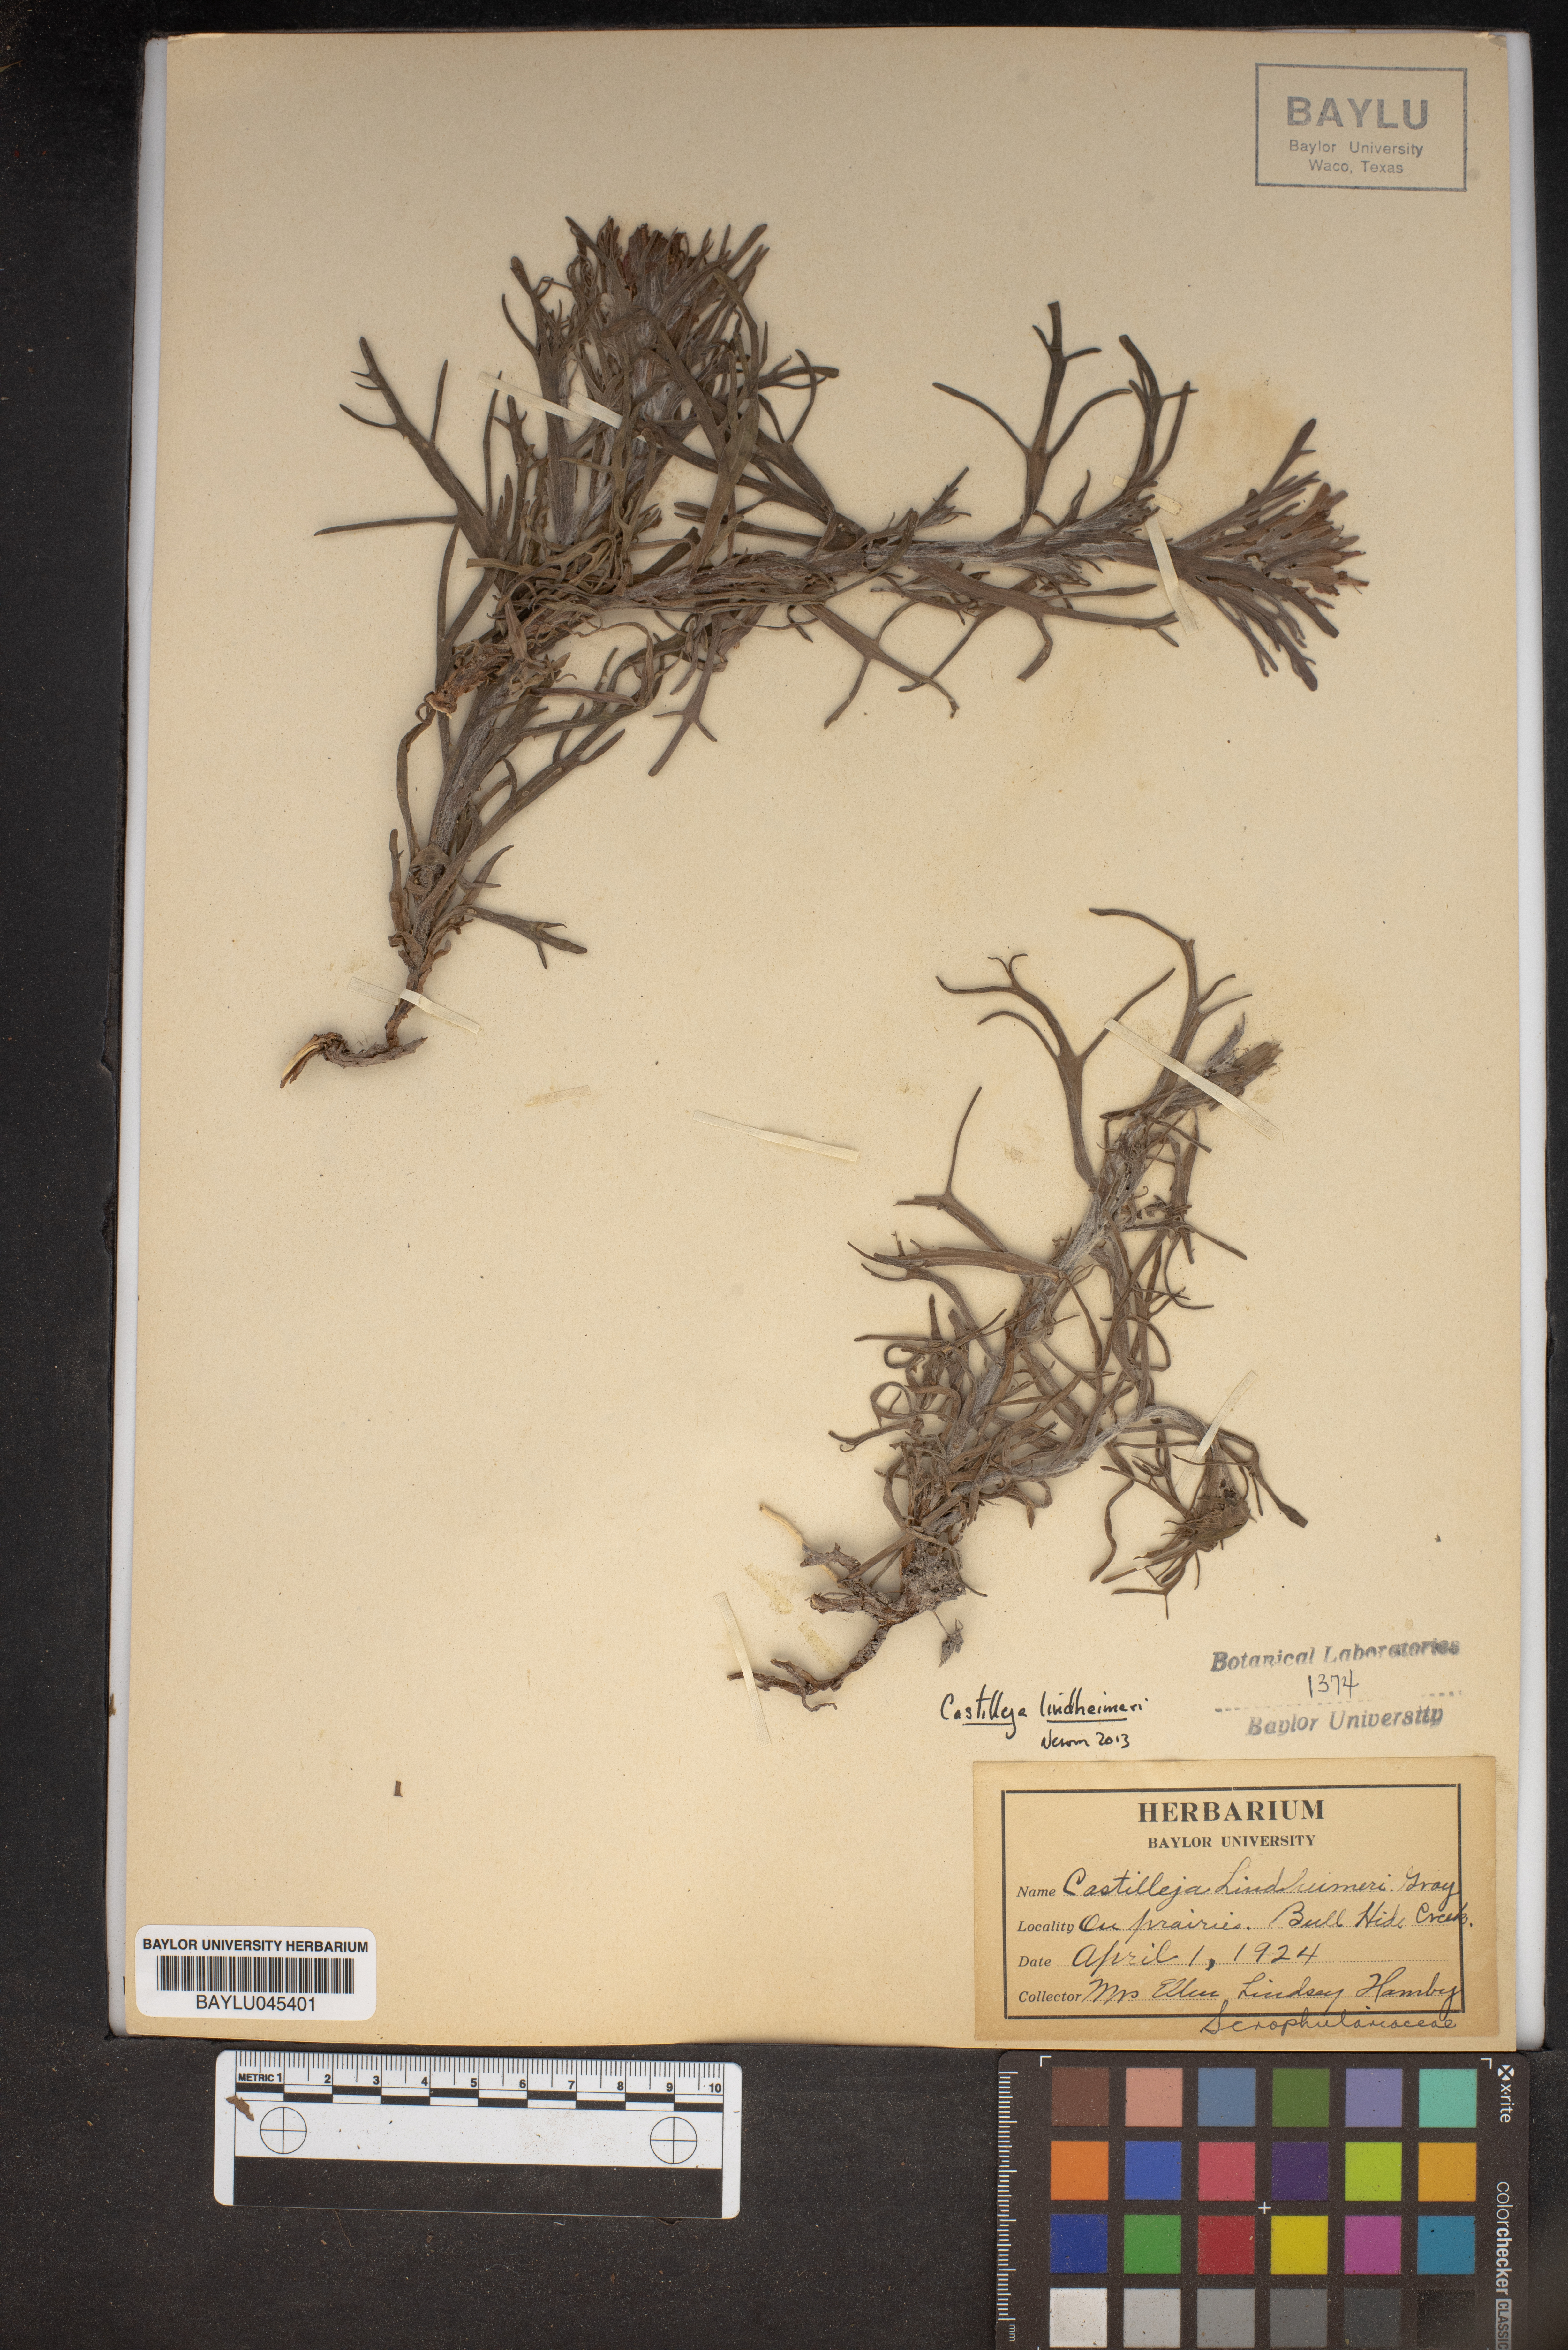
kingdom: Plantae
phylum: Tracheophyta
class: Magnoliopsida
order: Lamiales
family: Orobanchaceae
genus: Castilleja
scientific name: Castilleja lindheimeri
